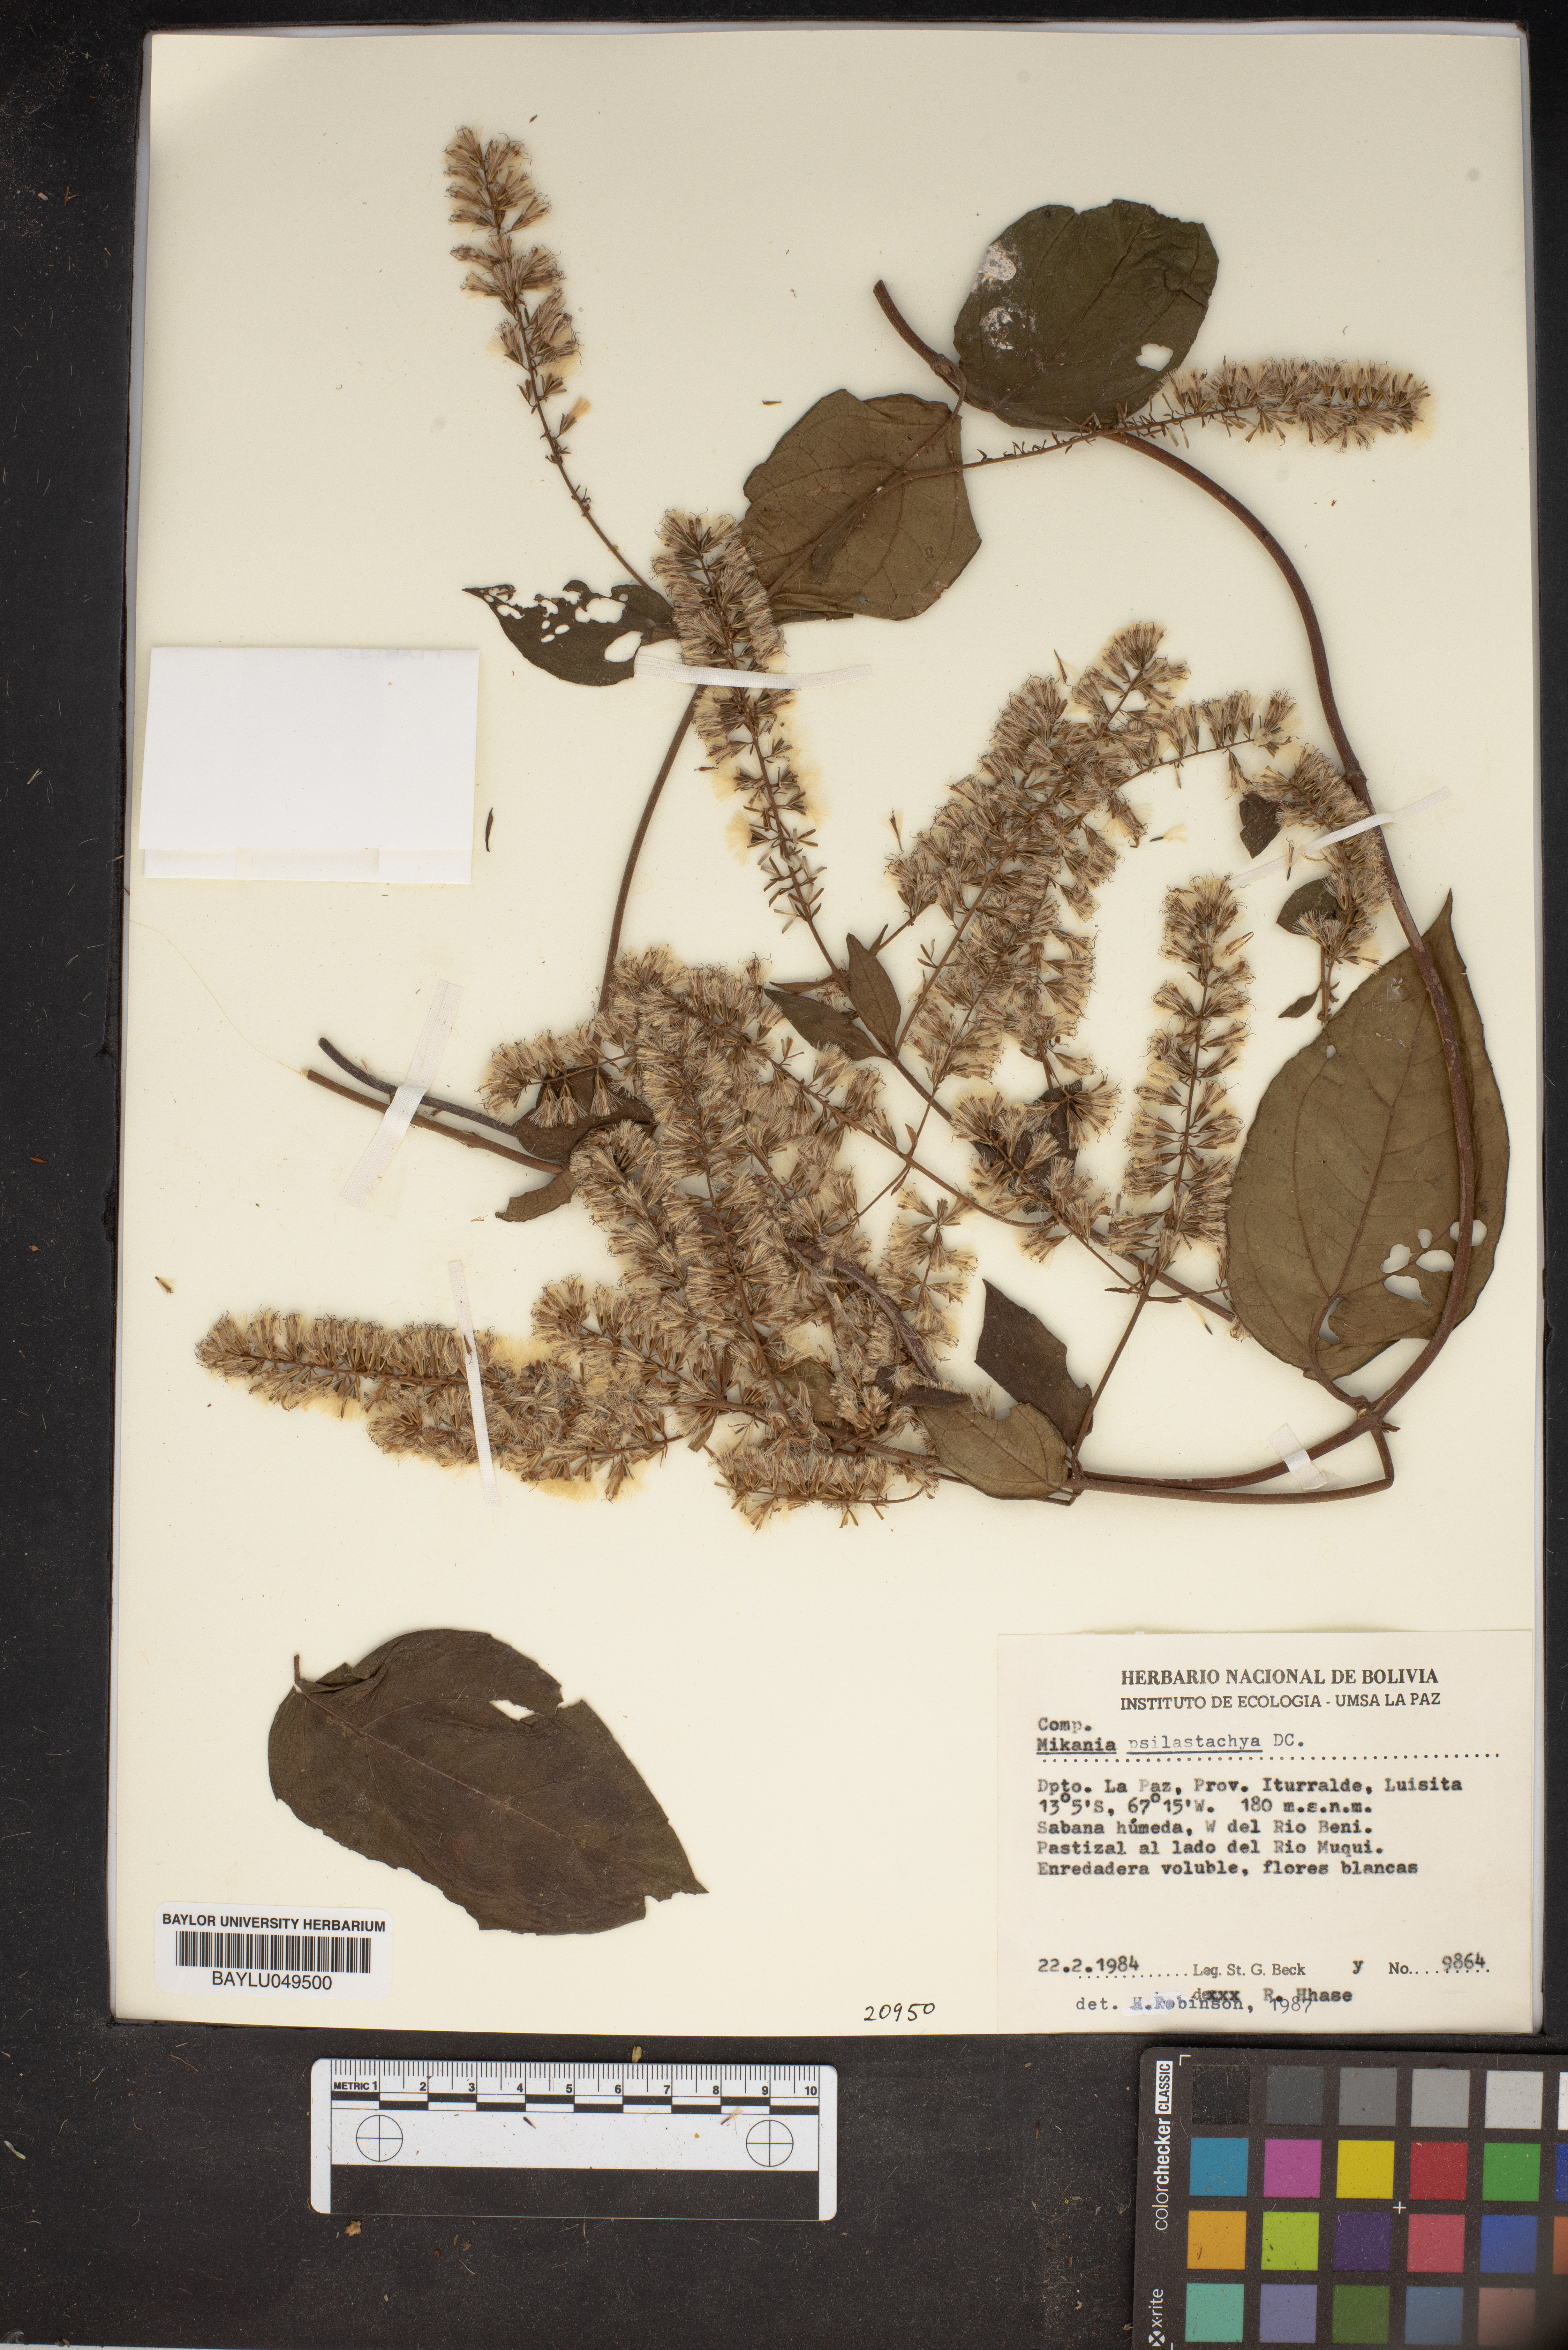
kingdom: Plantae
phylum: Tracheophyta
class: Magnoliopsida
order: Asterales
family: Asteraceae
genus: Mikania
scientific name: Mikania psilostachya
